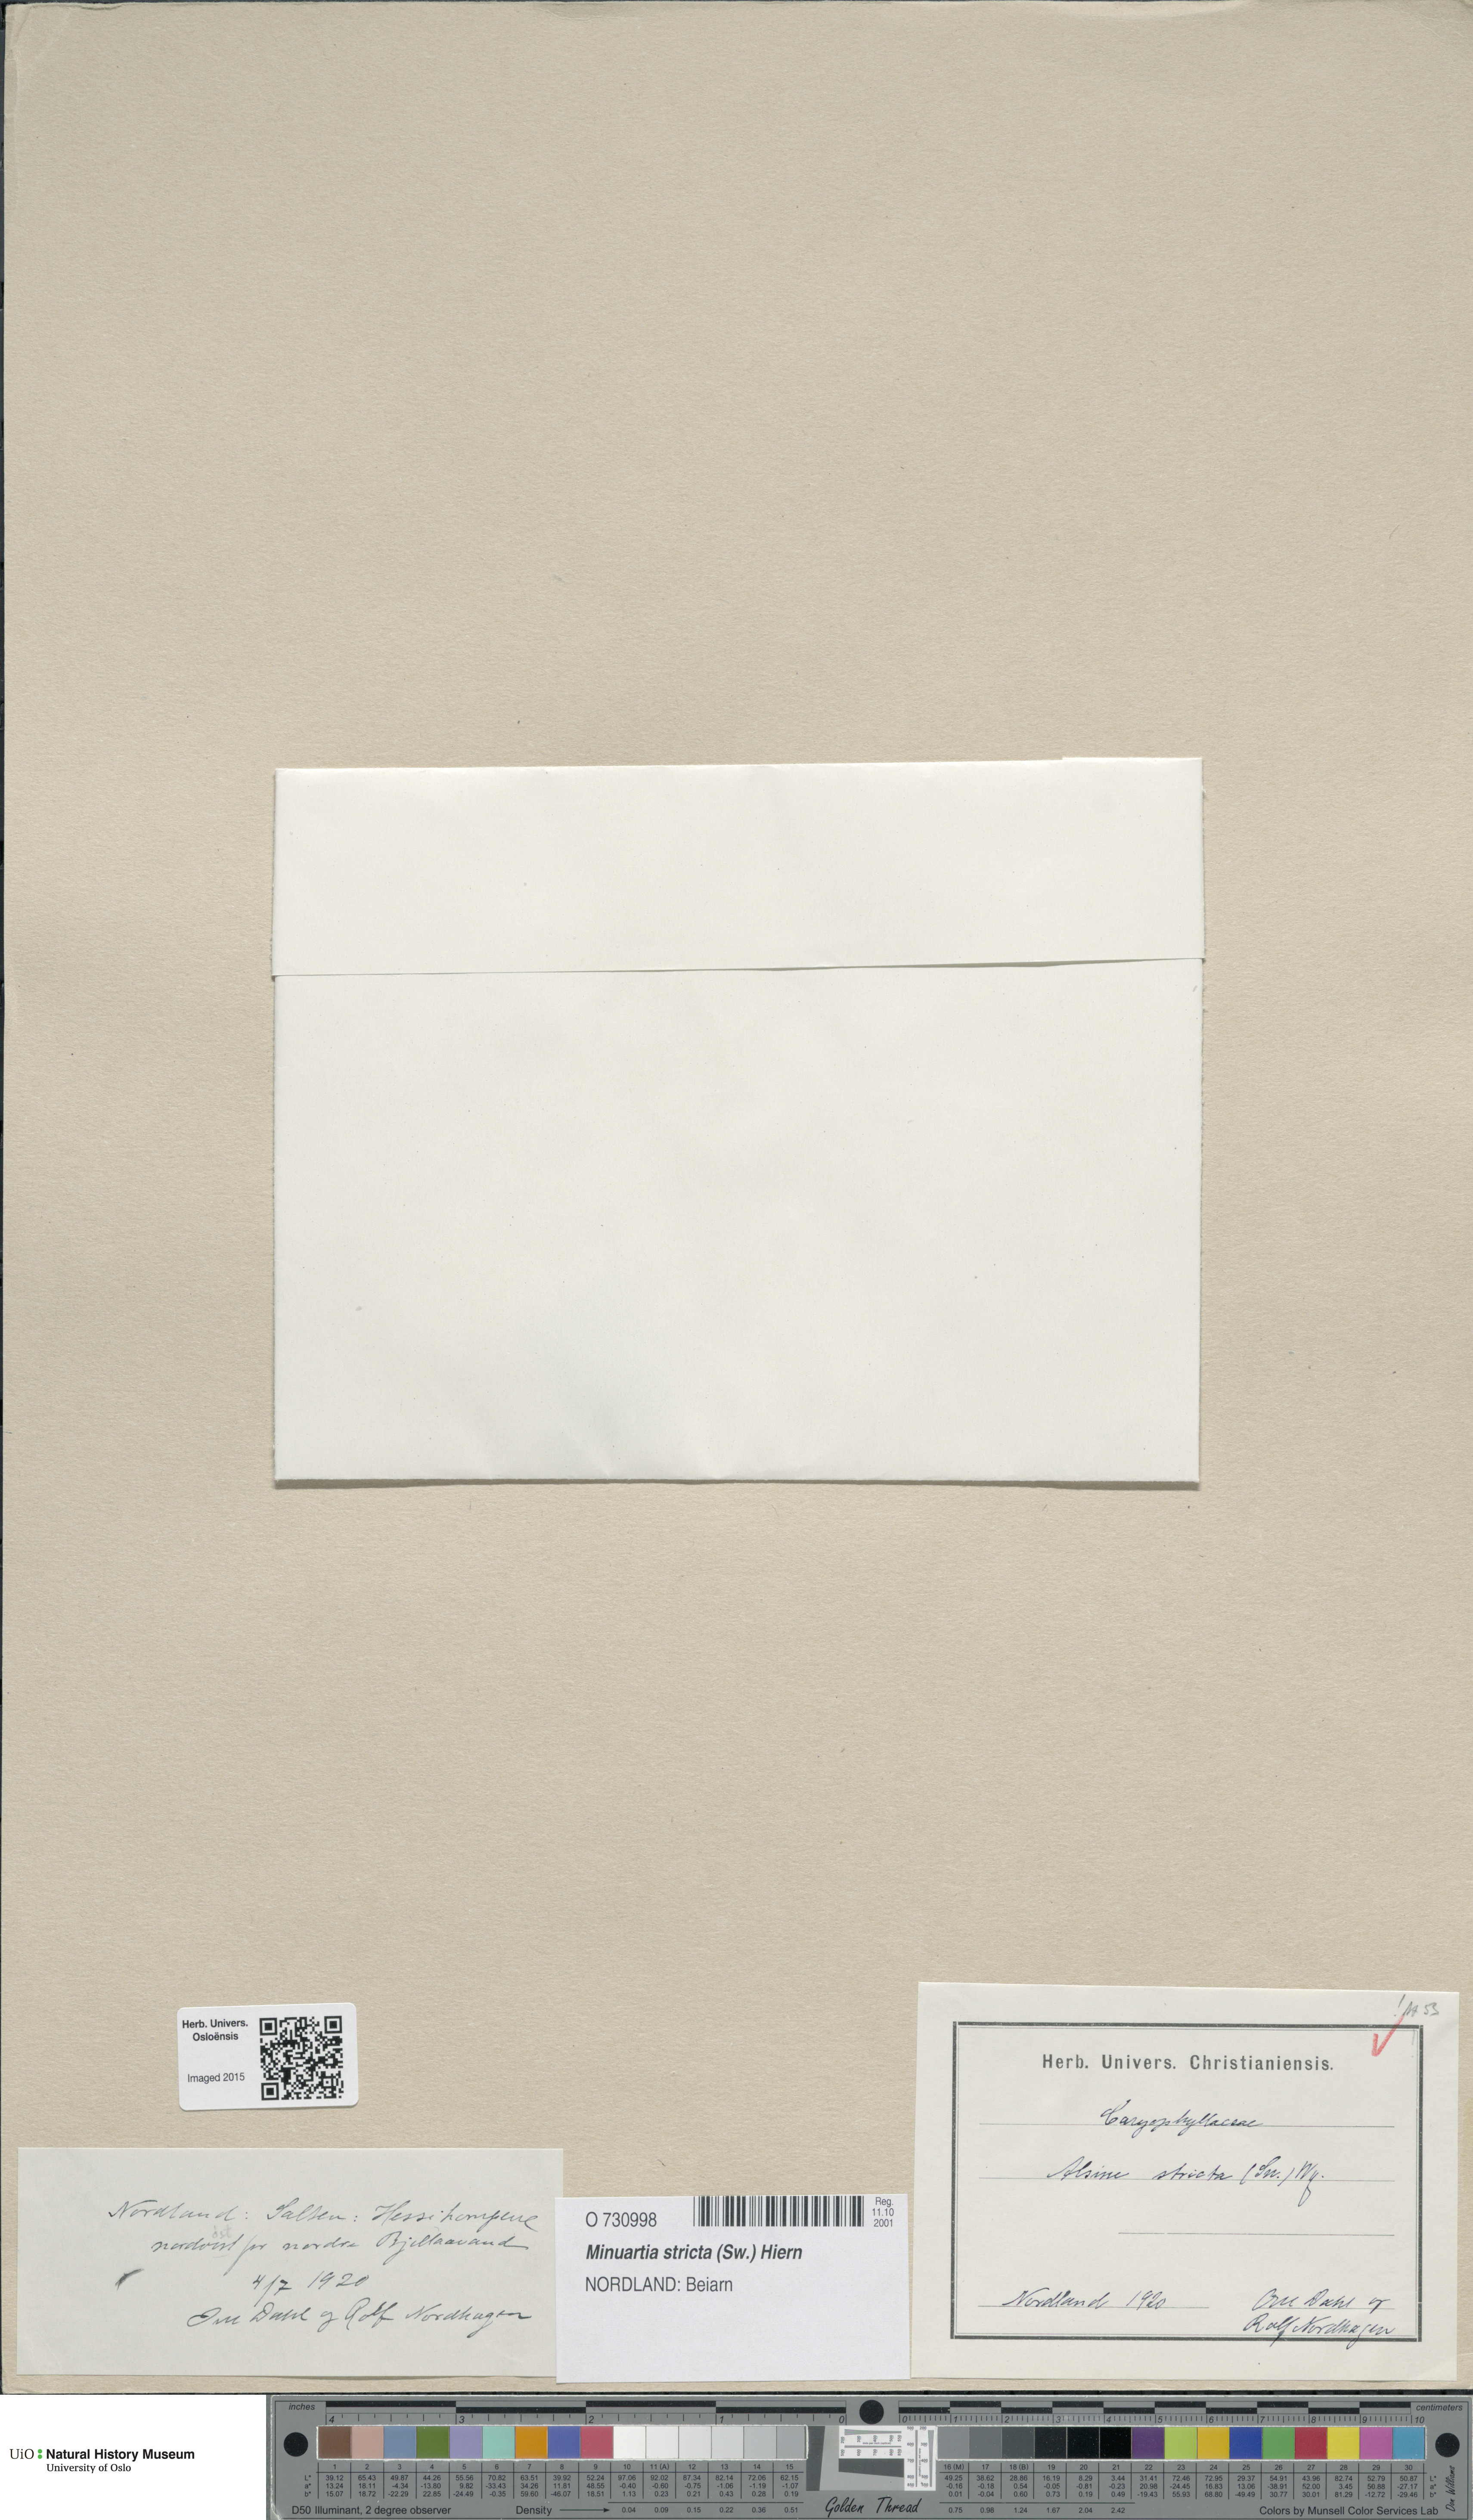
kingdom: Plantae
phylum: Tracheophyta
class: Magnoliopsida
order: Caryophyllales
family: Caryophyllaceae
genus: Sabulina
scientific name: Sabulina stricta
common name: Bog sandwort
